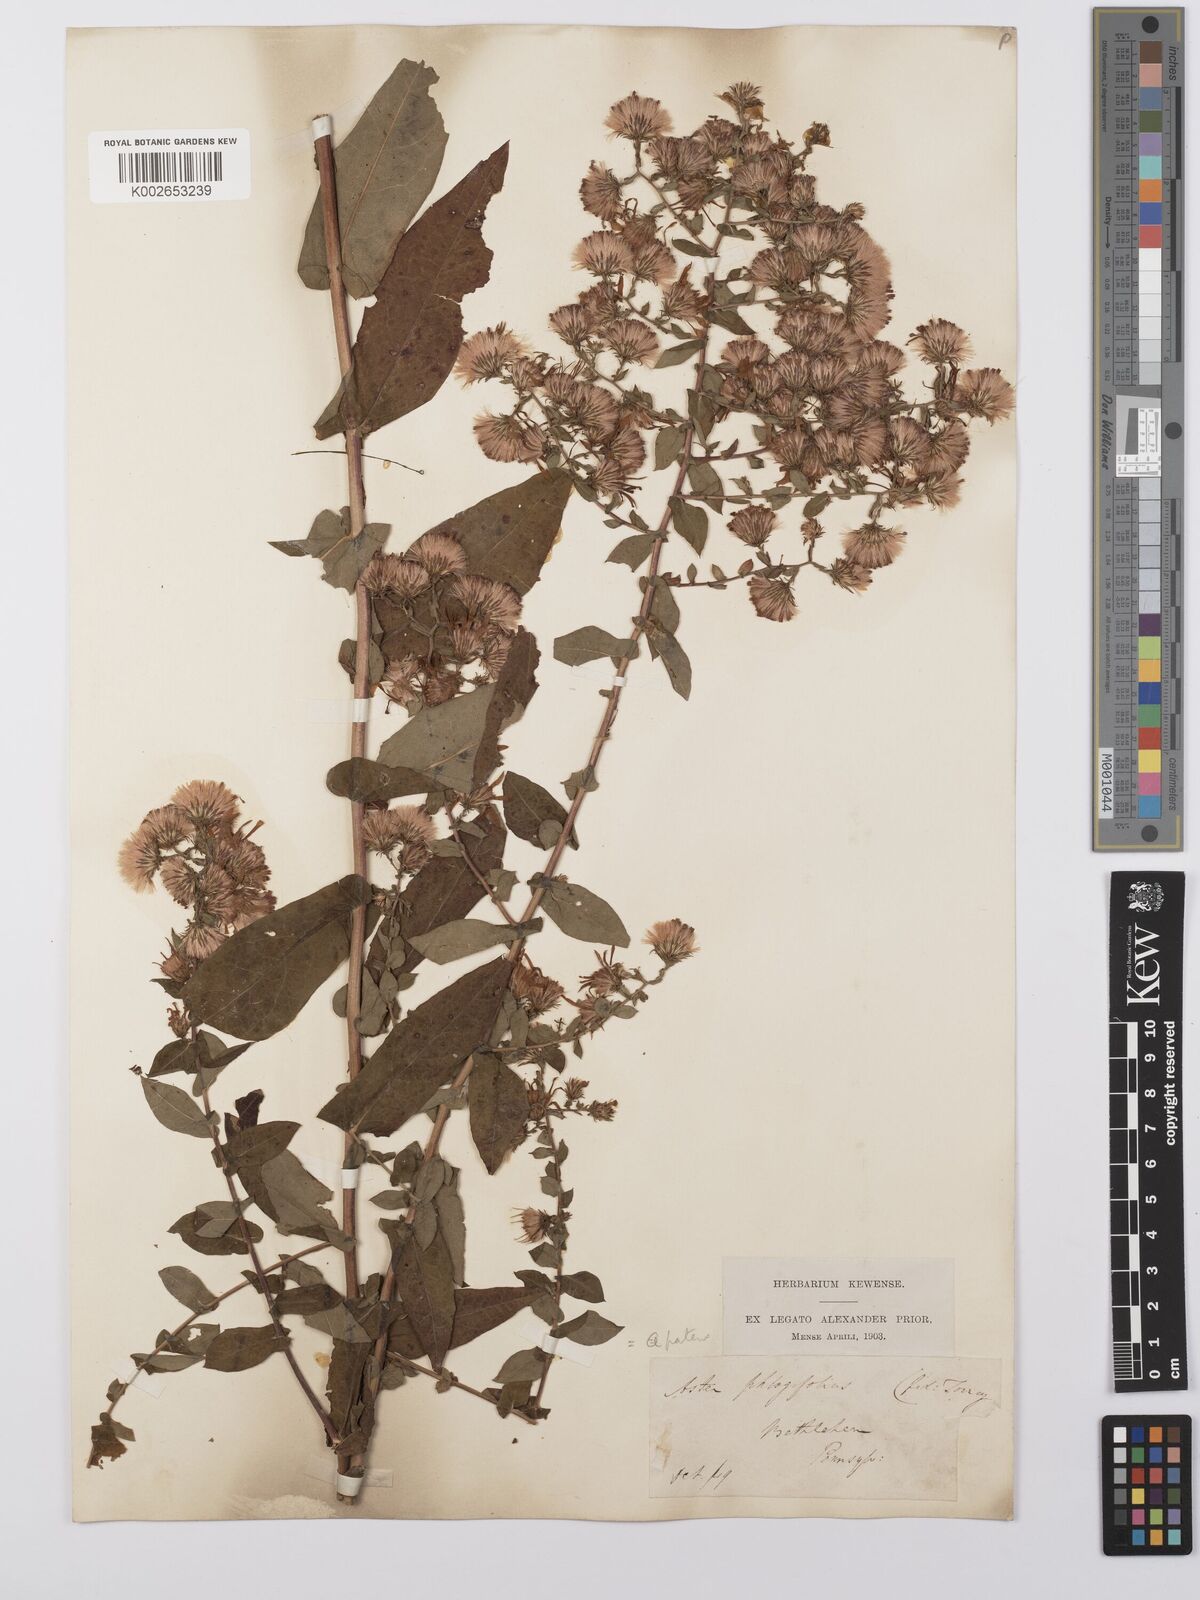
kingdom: Plantae
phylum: Tracheophyta
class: Magnoliopsida
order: Asterales
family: Asteraceae
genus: Symphyotrichum
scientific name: Symphyotrichum phlogifolium
